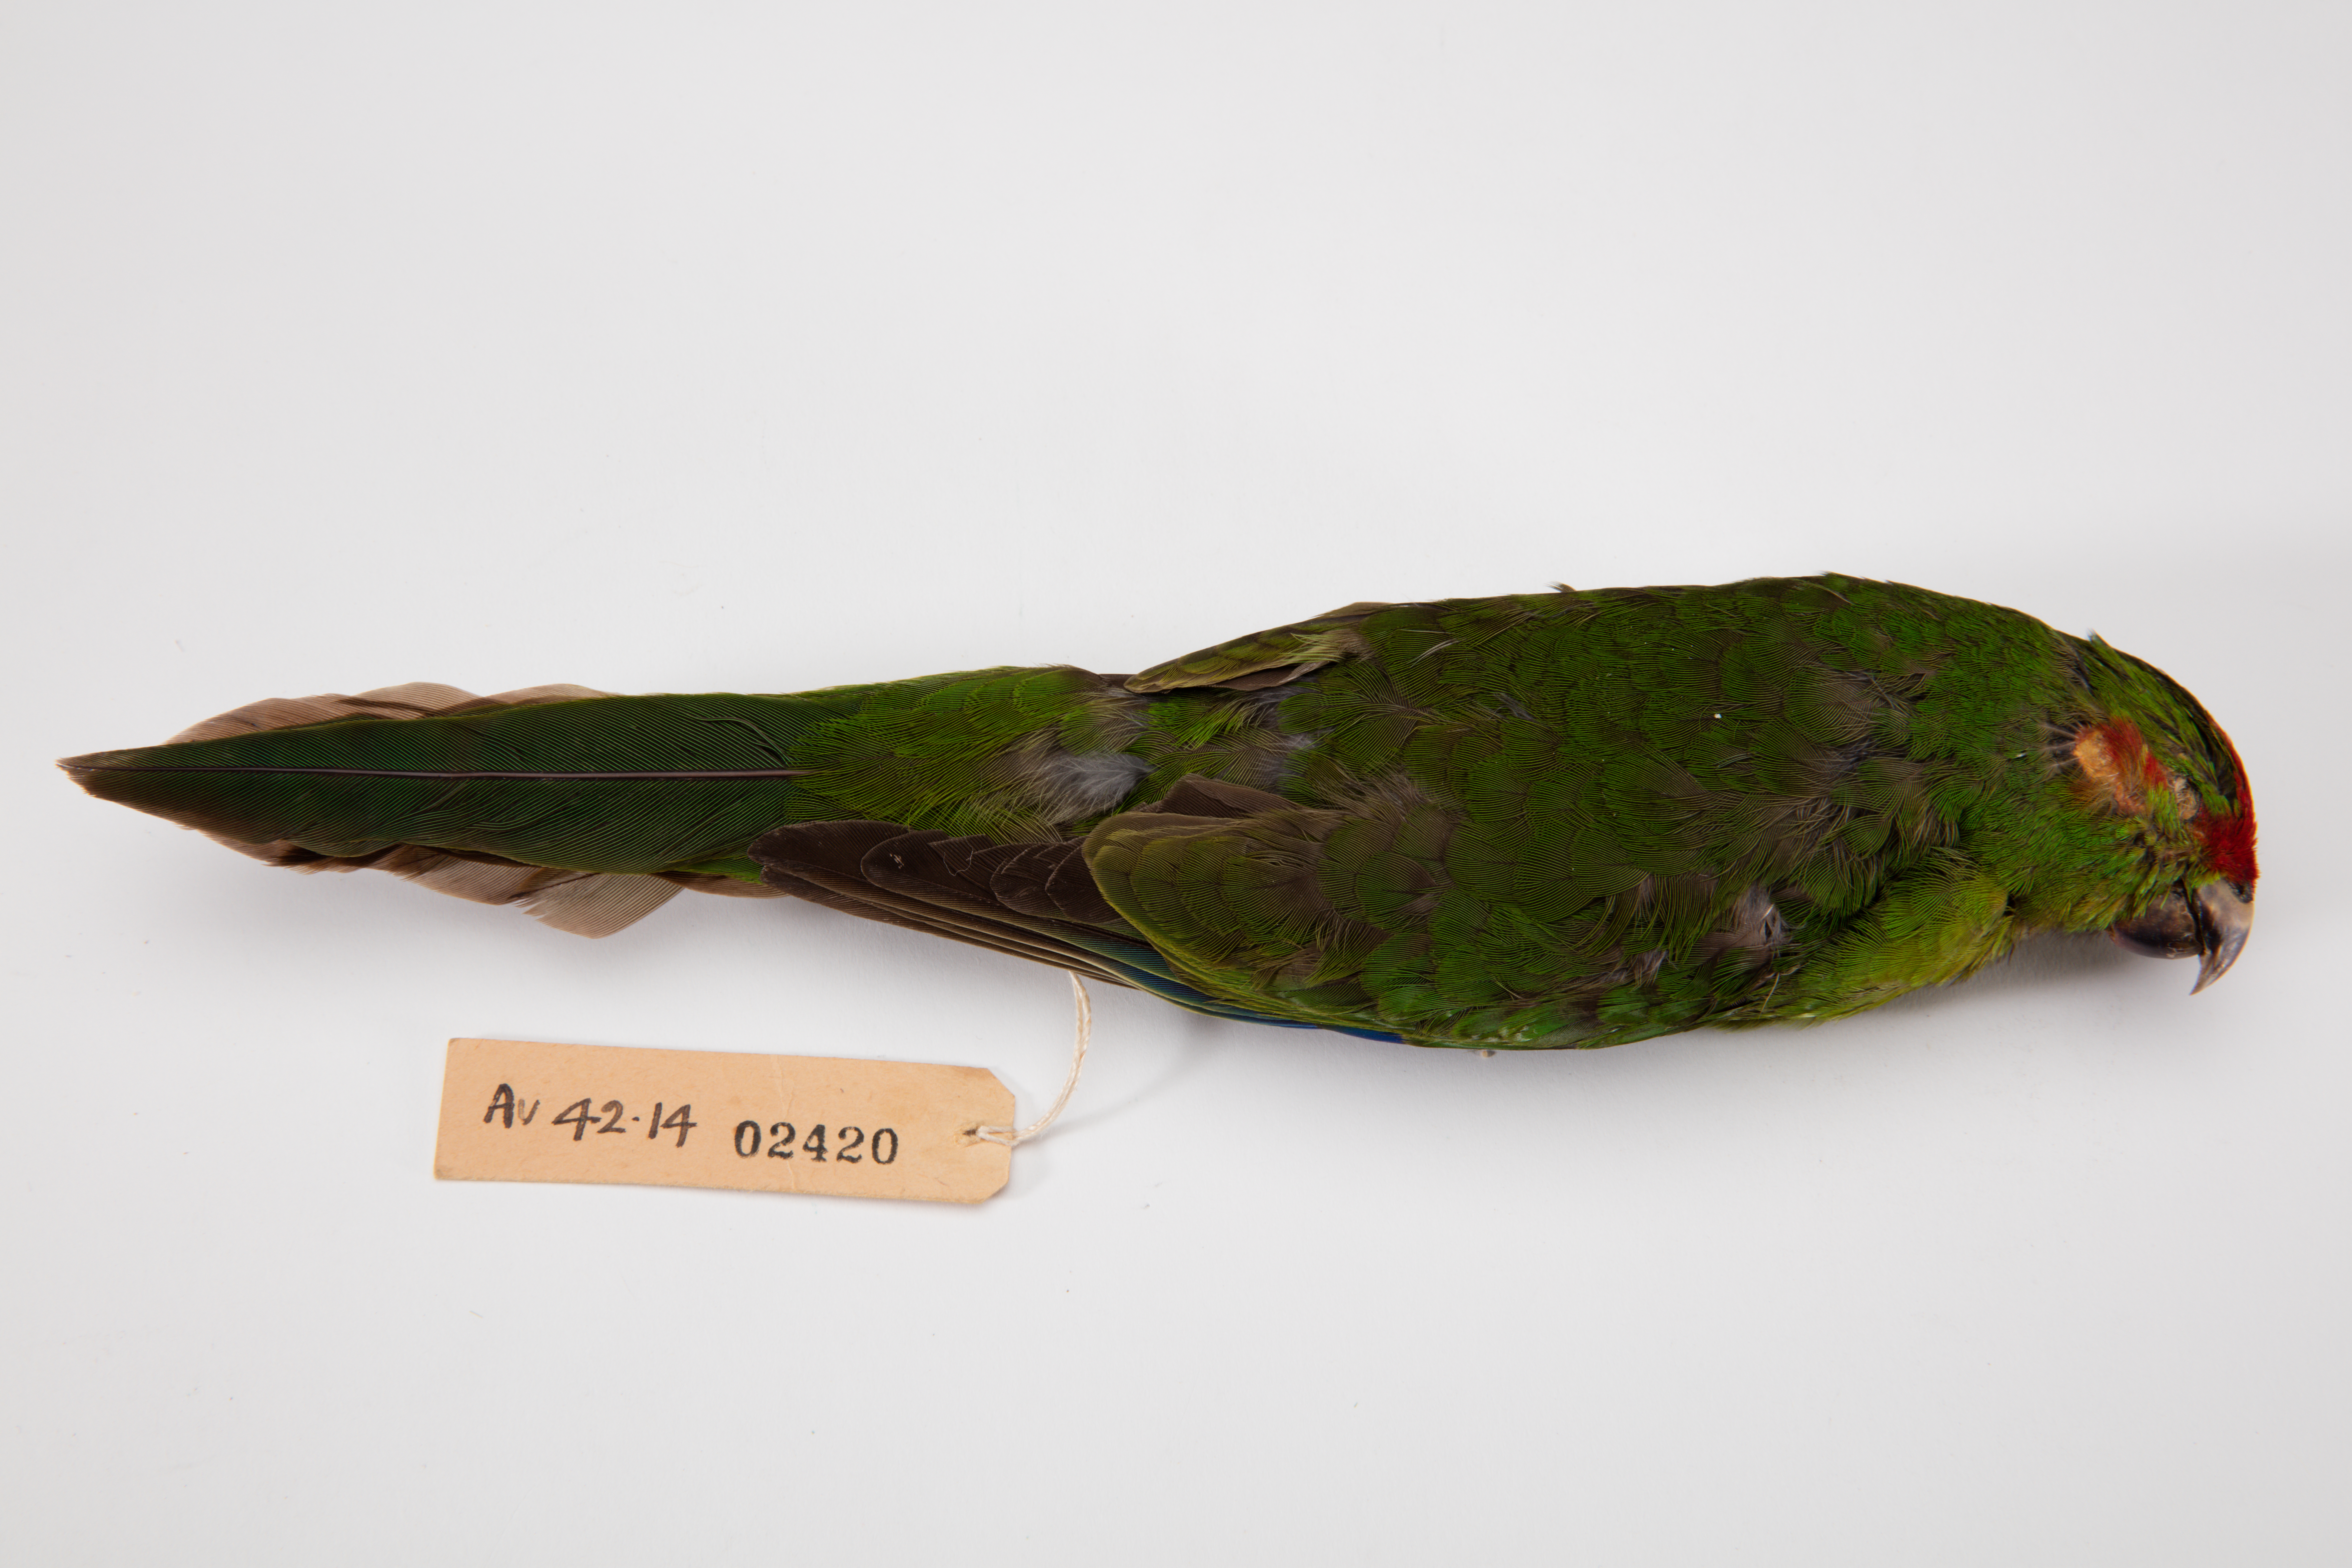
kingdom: Animalia
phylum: Chordata
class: Aves
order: Psittaciformes
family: Psittacidae
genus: Cyanoramphus
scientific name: Cyanoramphus novaezelandiae
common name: Red-fronted parakeet
